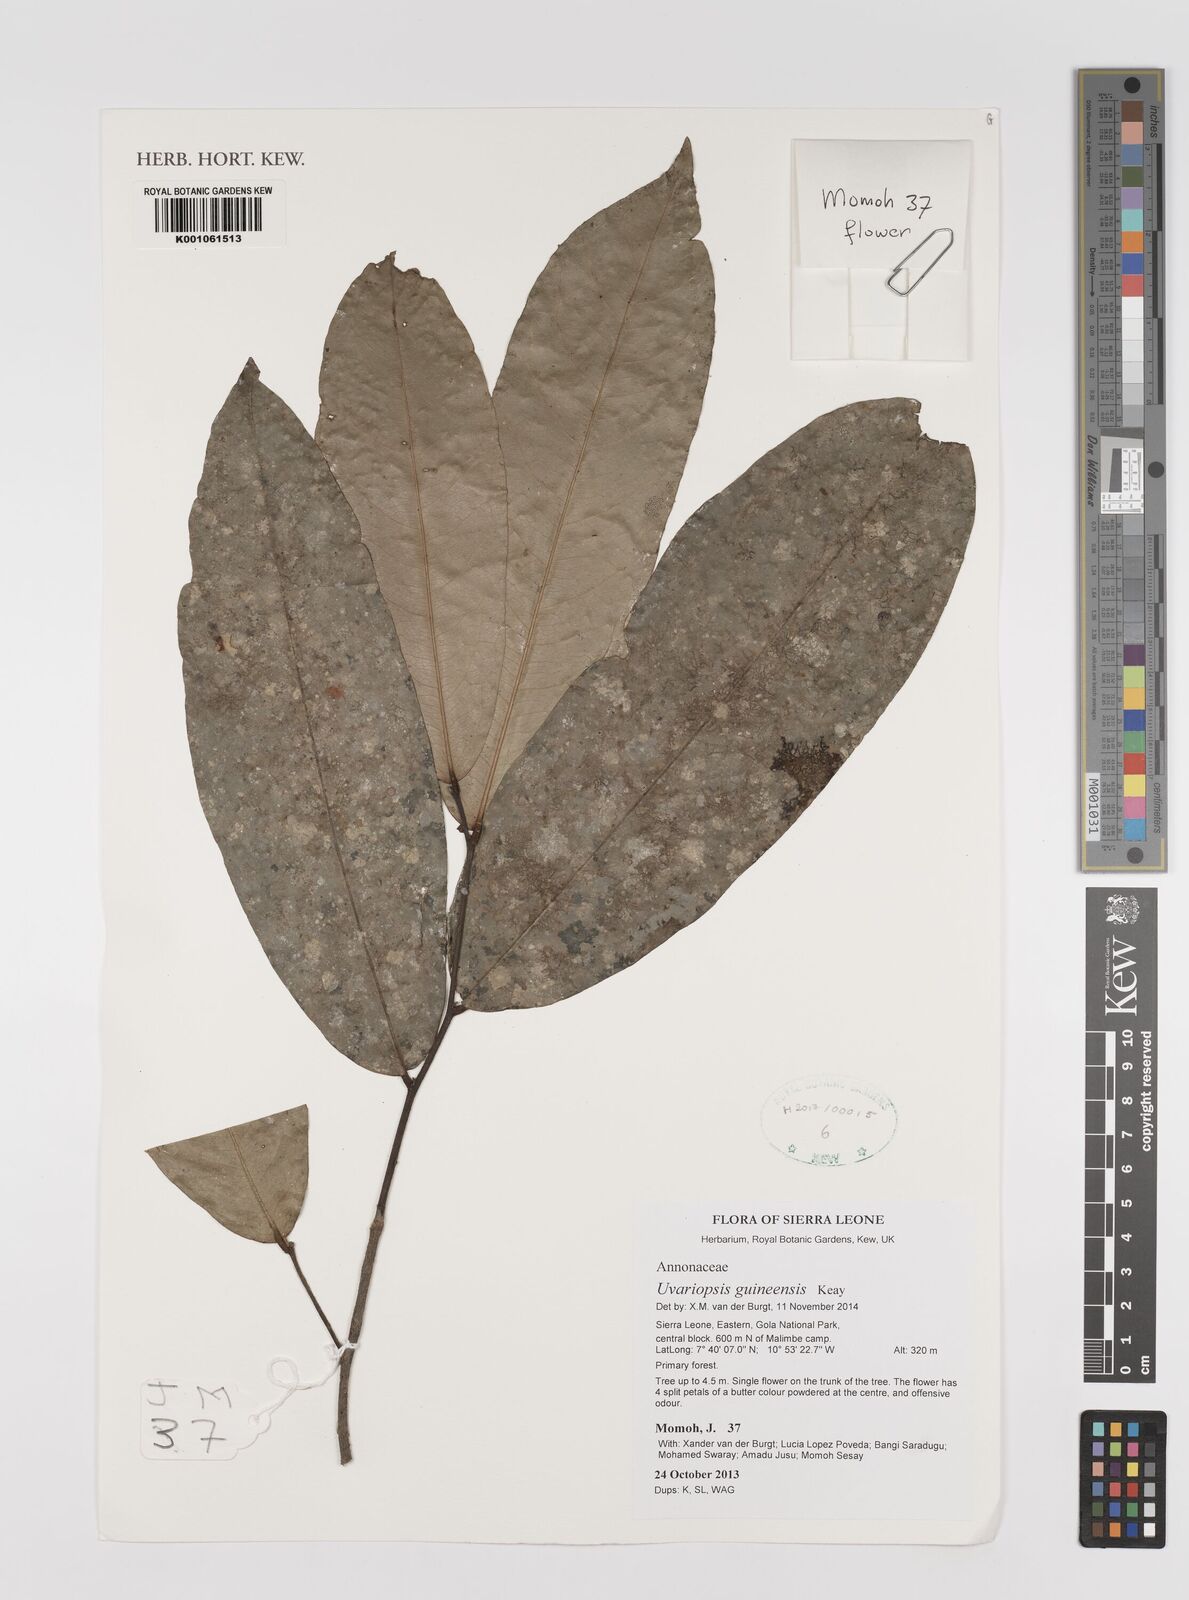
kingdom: Plantae
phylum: Tracheophyta
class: Magnoliopsida
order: Magnoliales
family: Annonaceae
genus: Uvariopsis
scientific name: Uvariopsis guineensis
